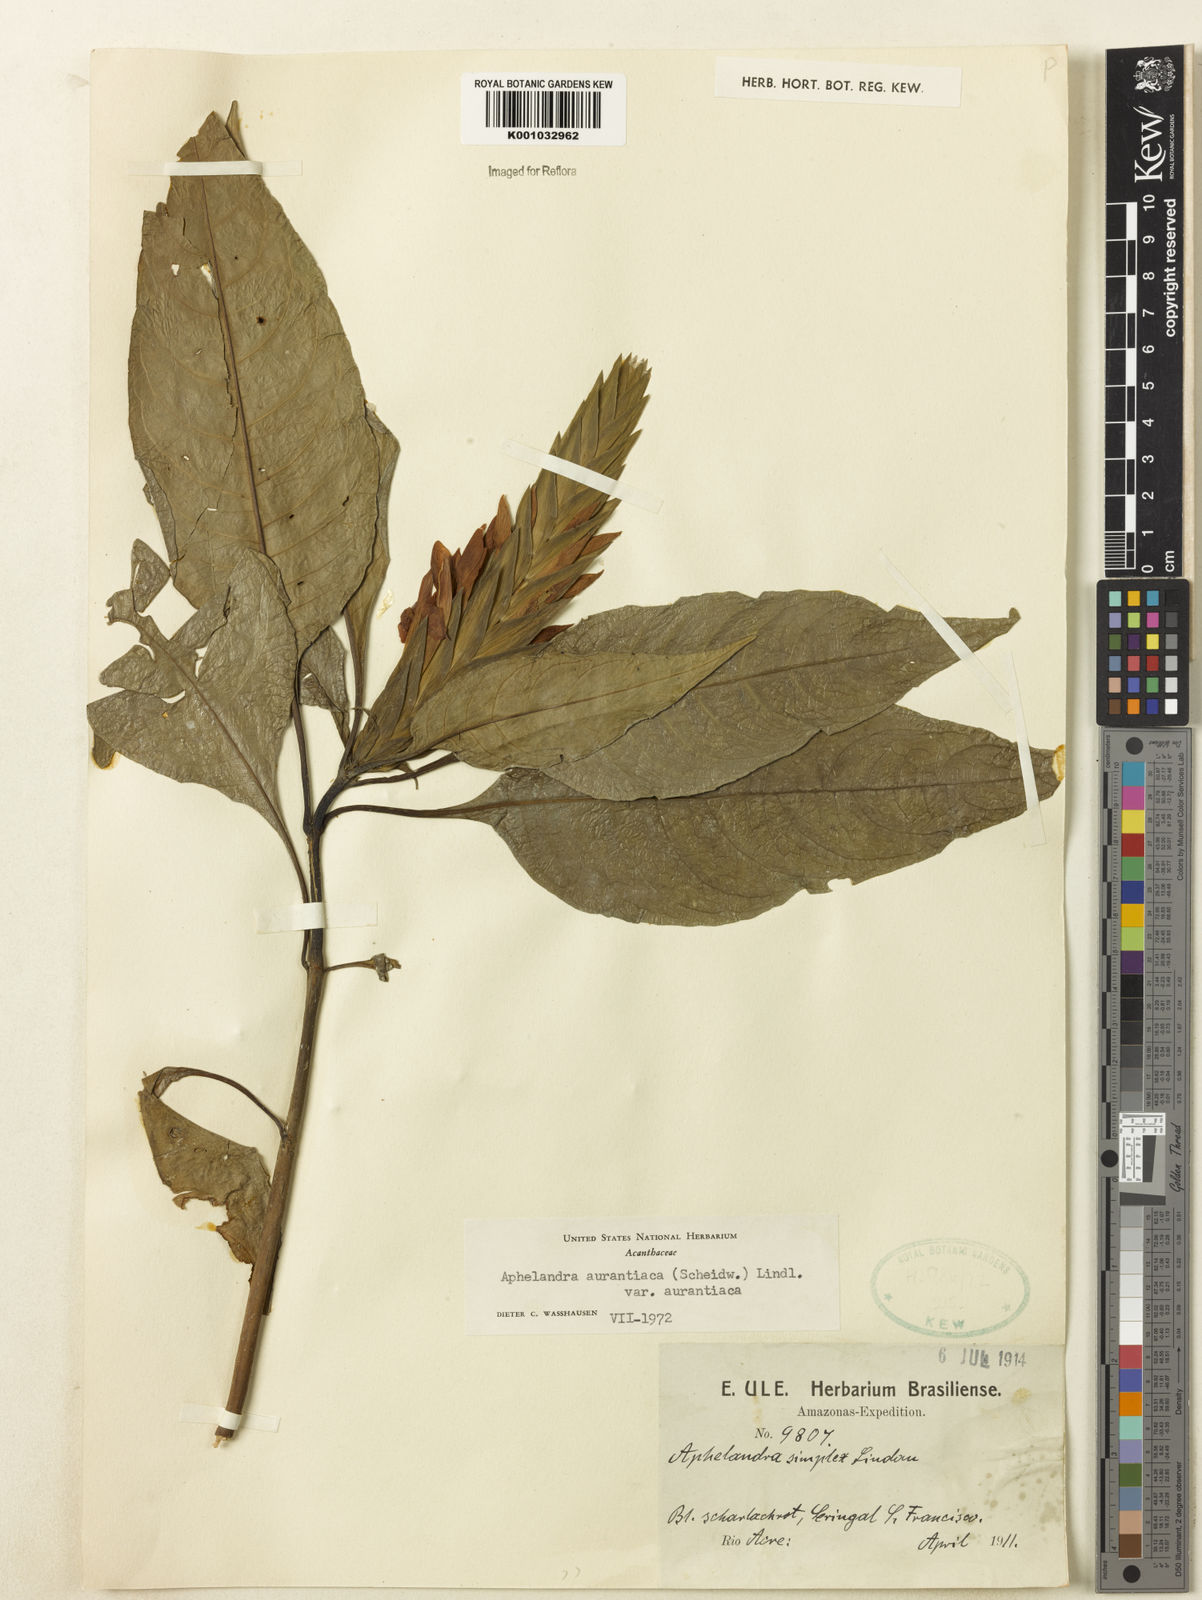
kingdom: Plantae
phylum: Tracheophyta
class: Magnoliopsida
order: Lamiales
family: Acanthaceae
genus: Aphelandra
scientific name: Aphelandra aurantiaca
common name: Fiery spike
